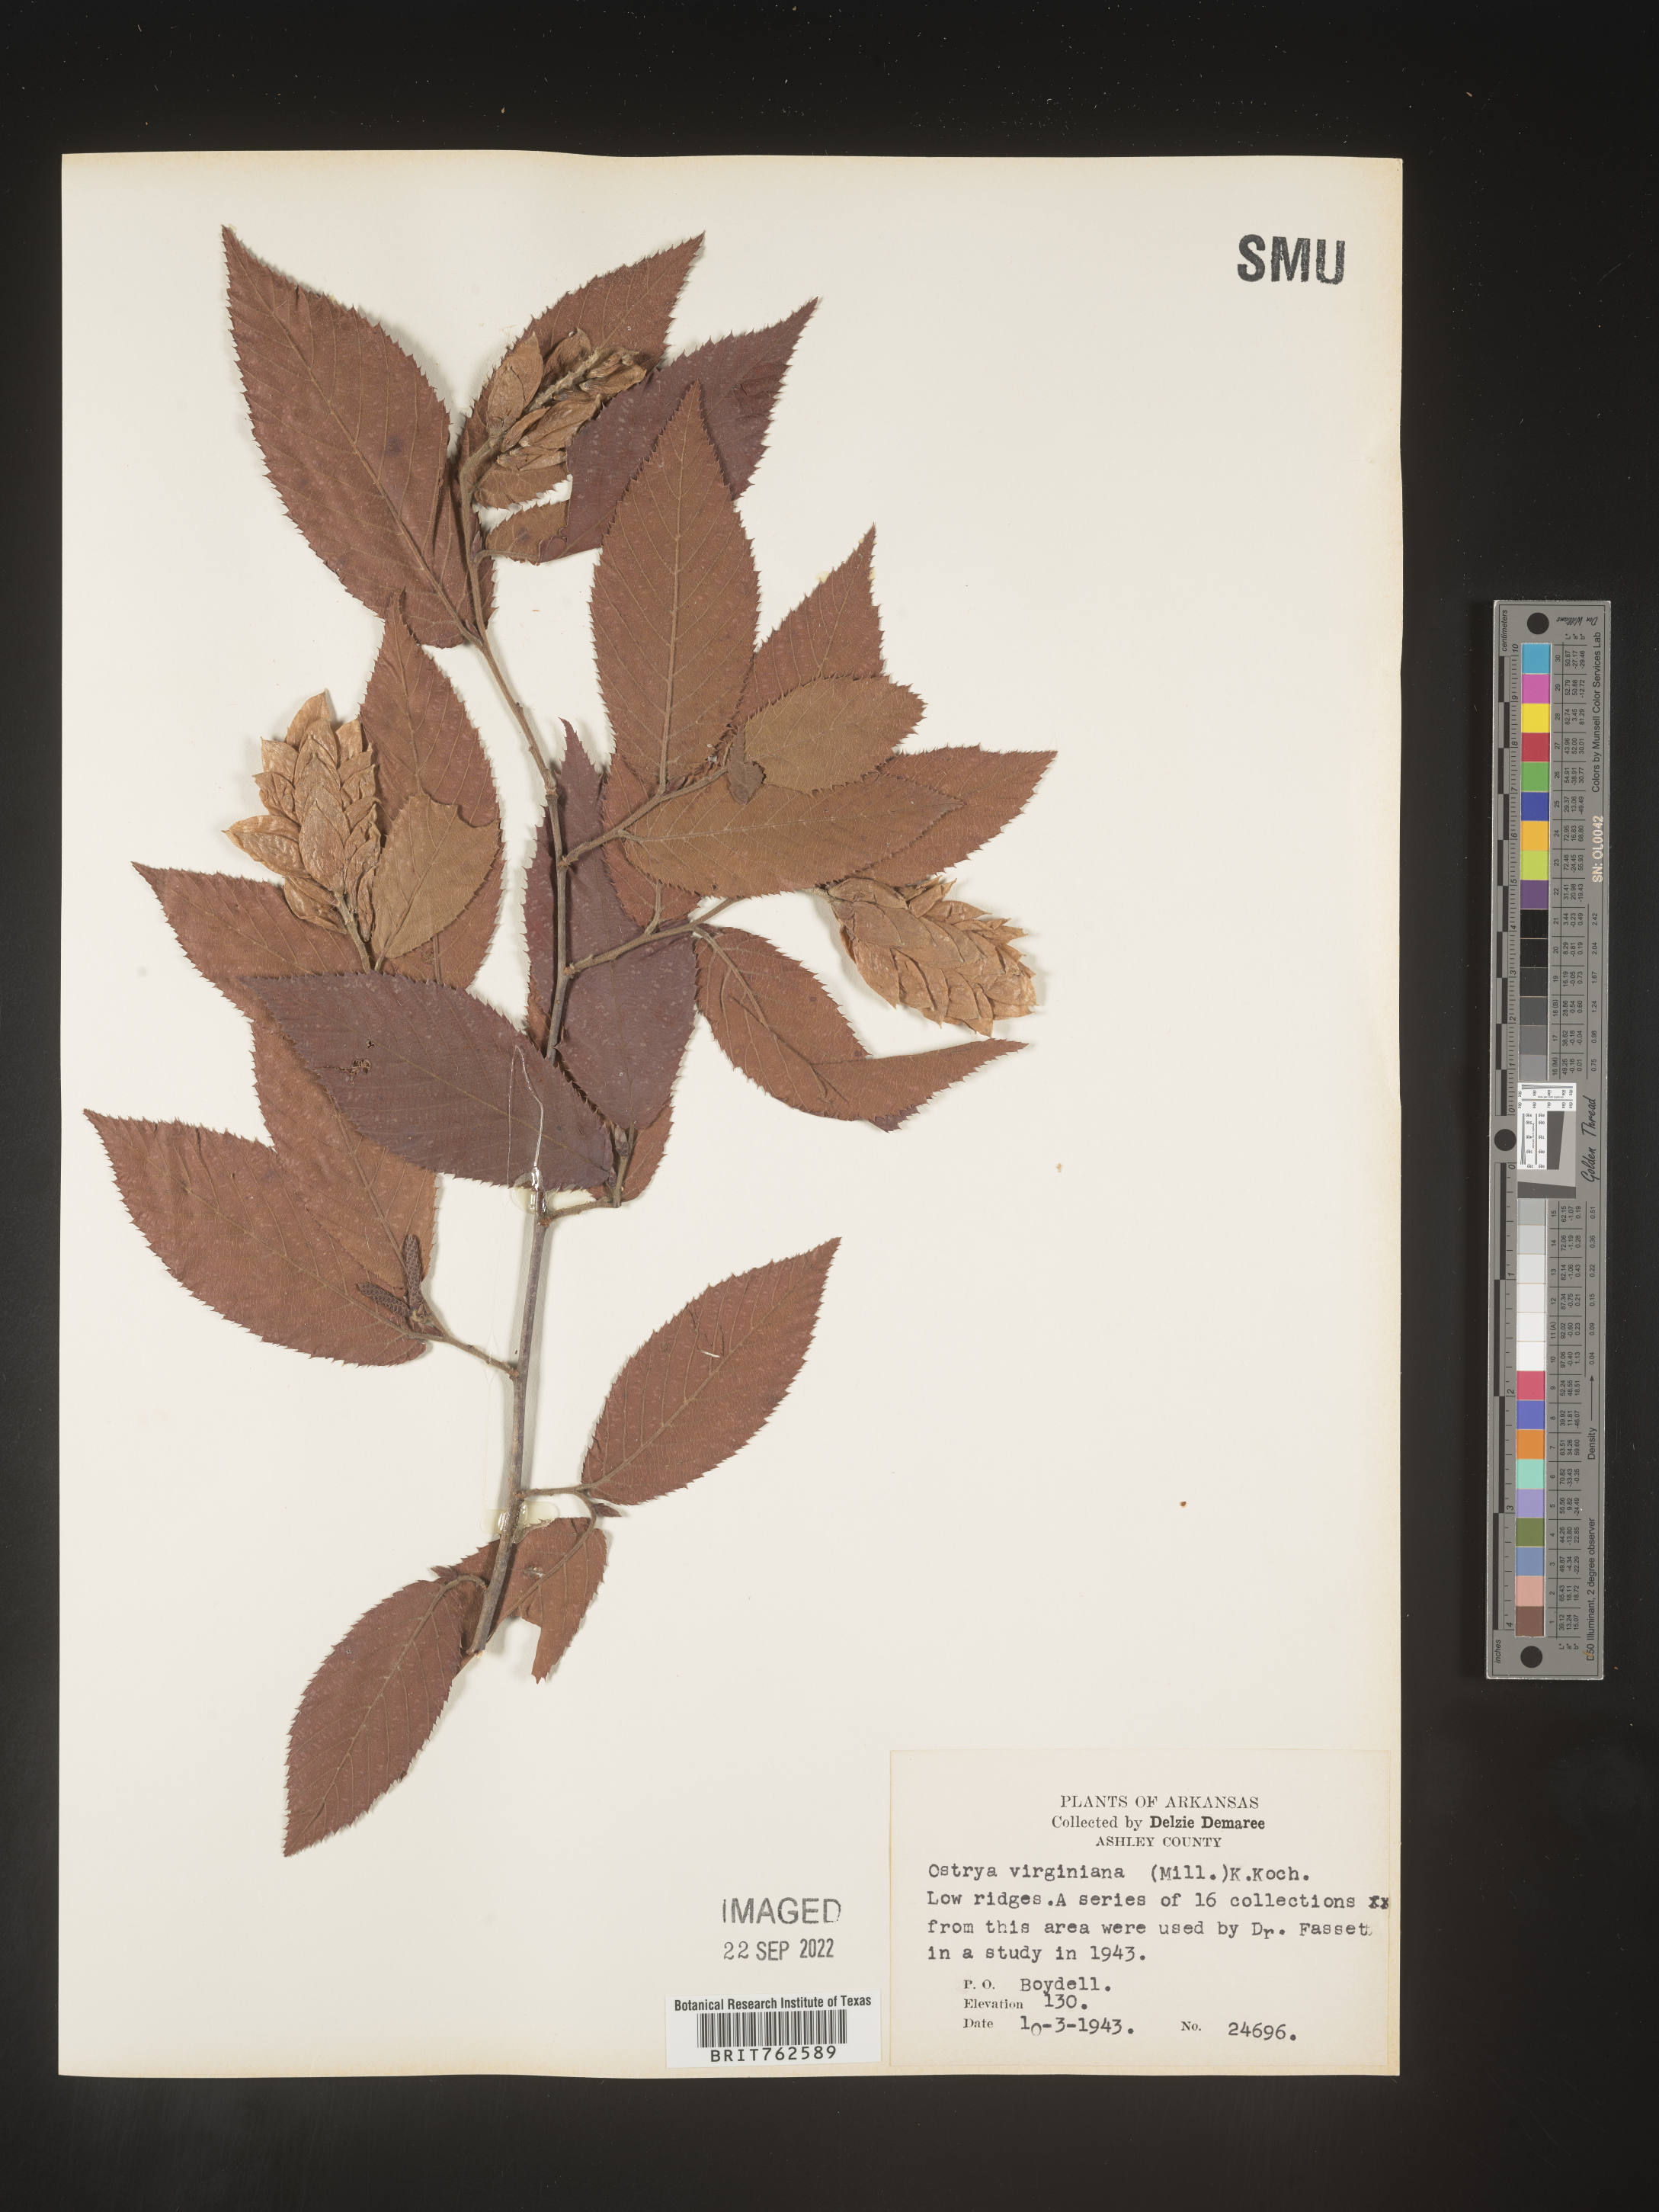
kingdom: Plantae
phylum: Tracheophyta
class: Magnoliopsida
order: Fagales
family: Betulaceae
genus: Ostrya
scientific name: Ostrya virginiana
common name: Ironwood
